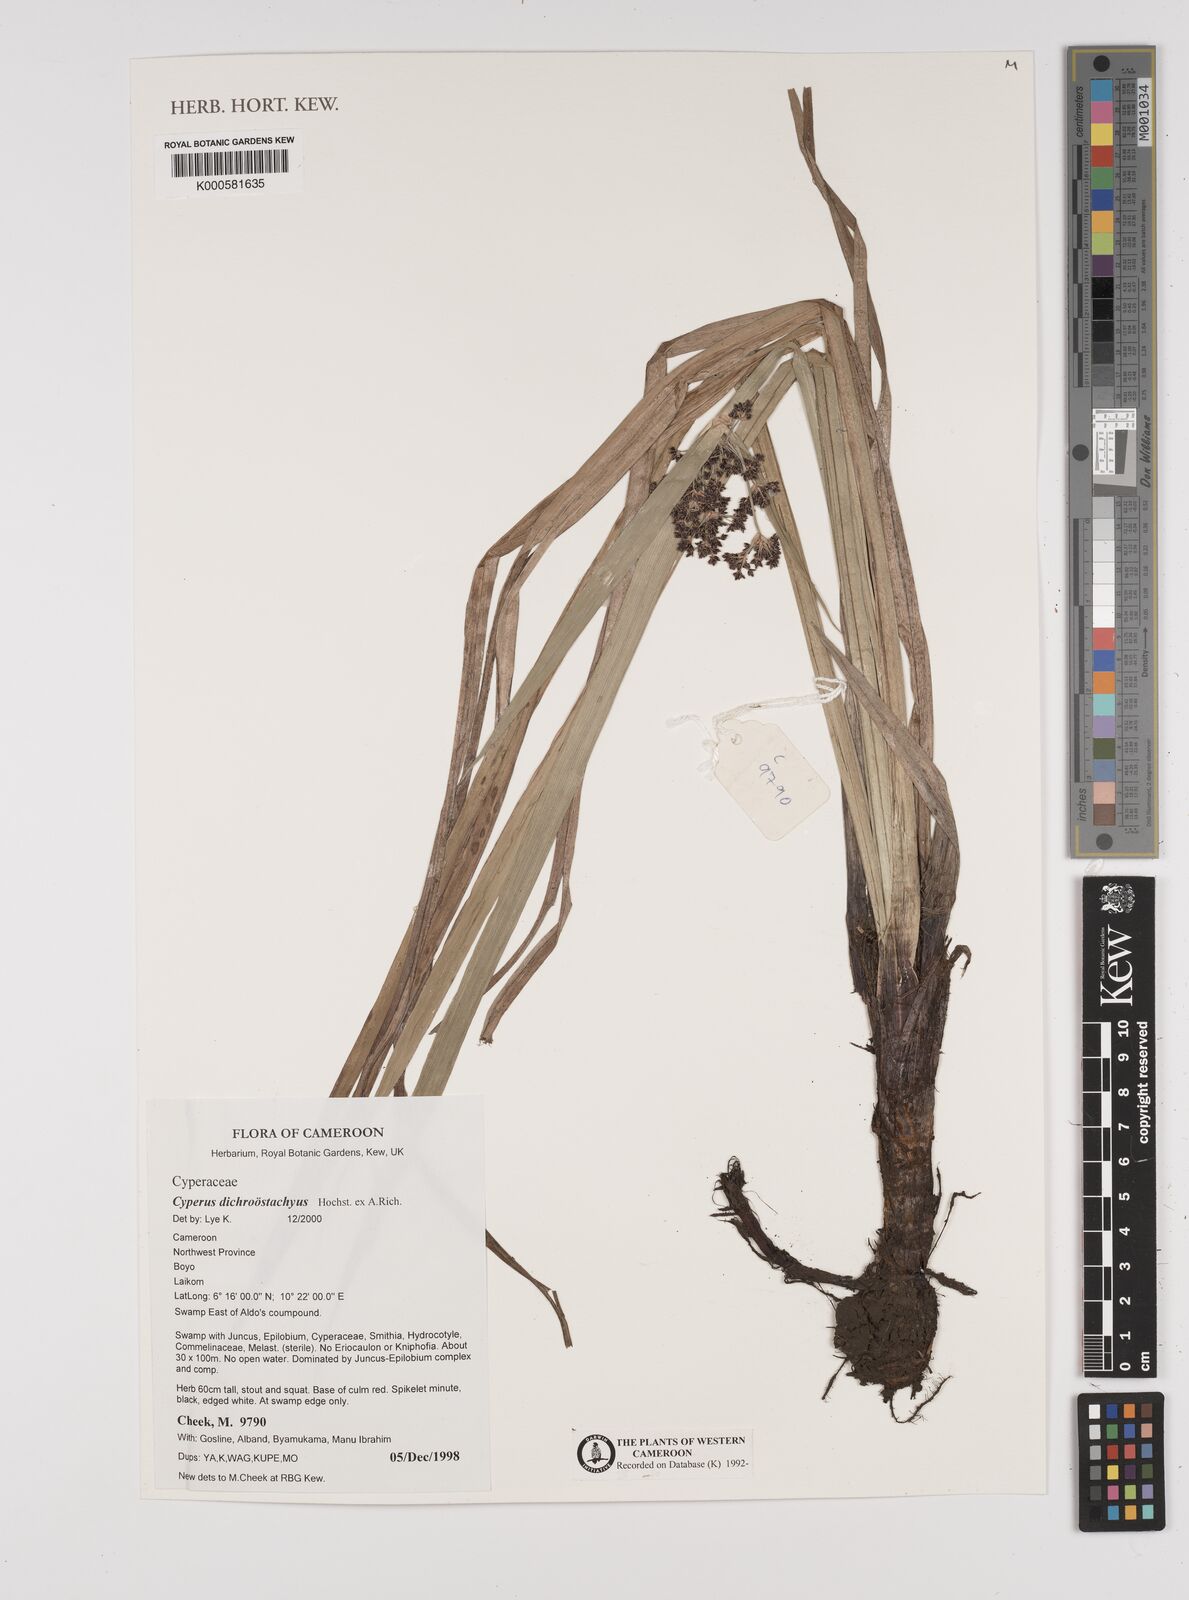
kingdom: Plantae
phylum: Tracheophyta
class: Liliopsida
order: Poales
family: Cyperaceae
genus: Cyperus
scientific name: Cyperus
